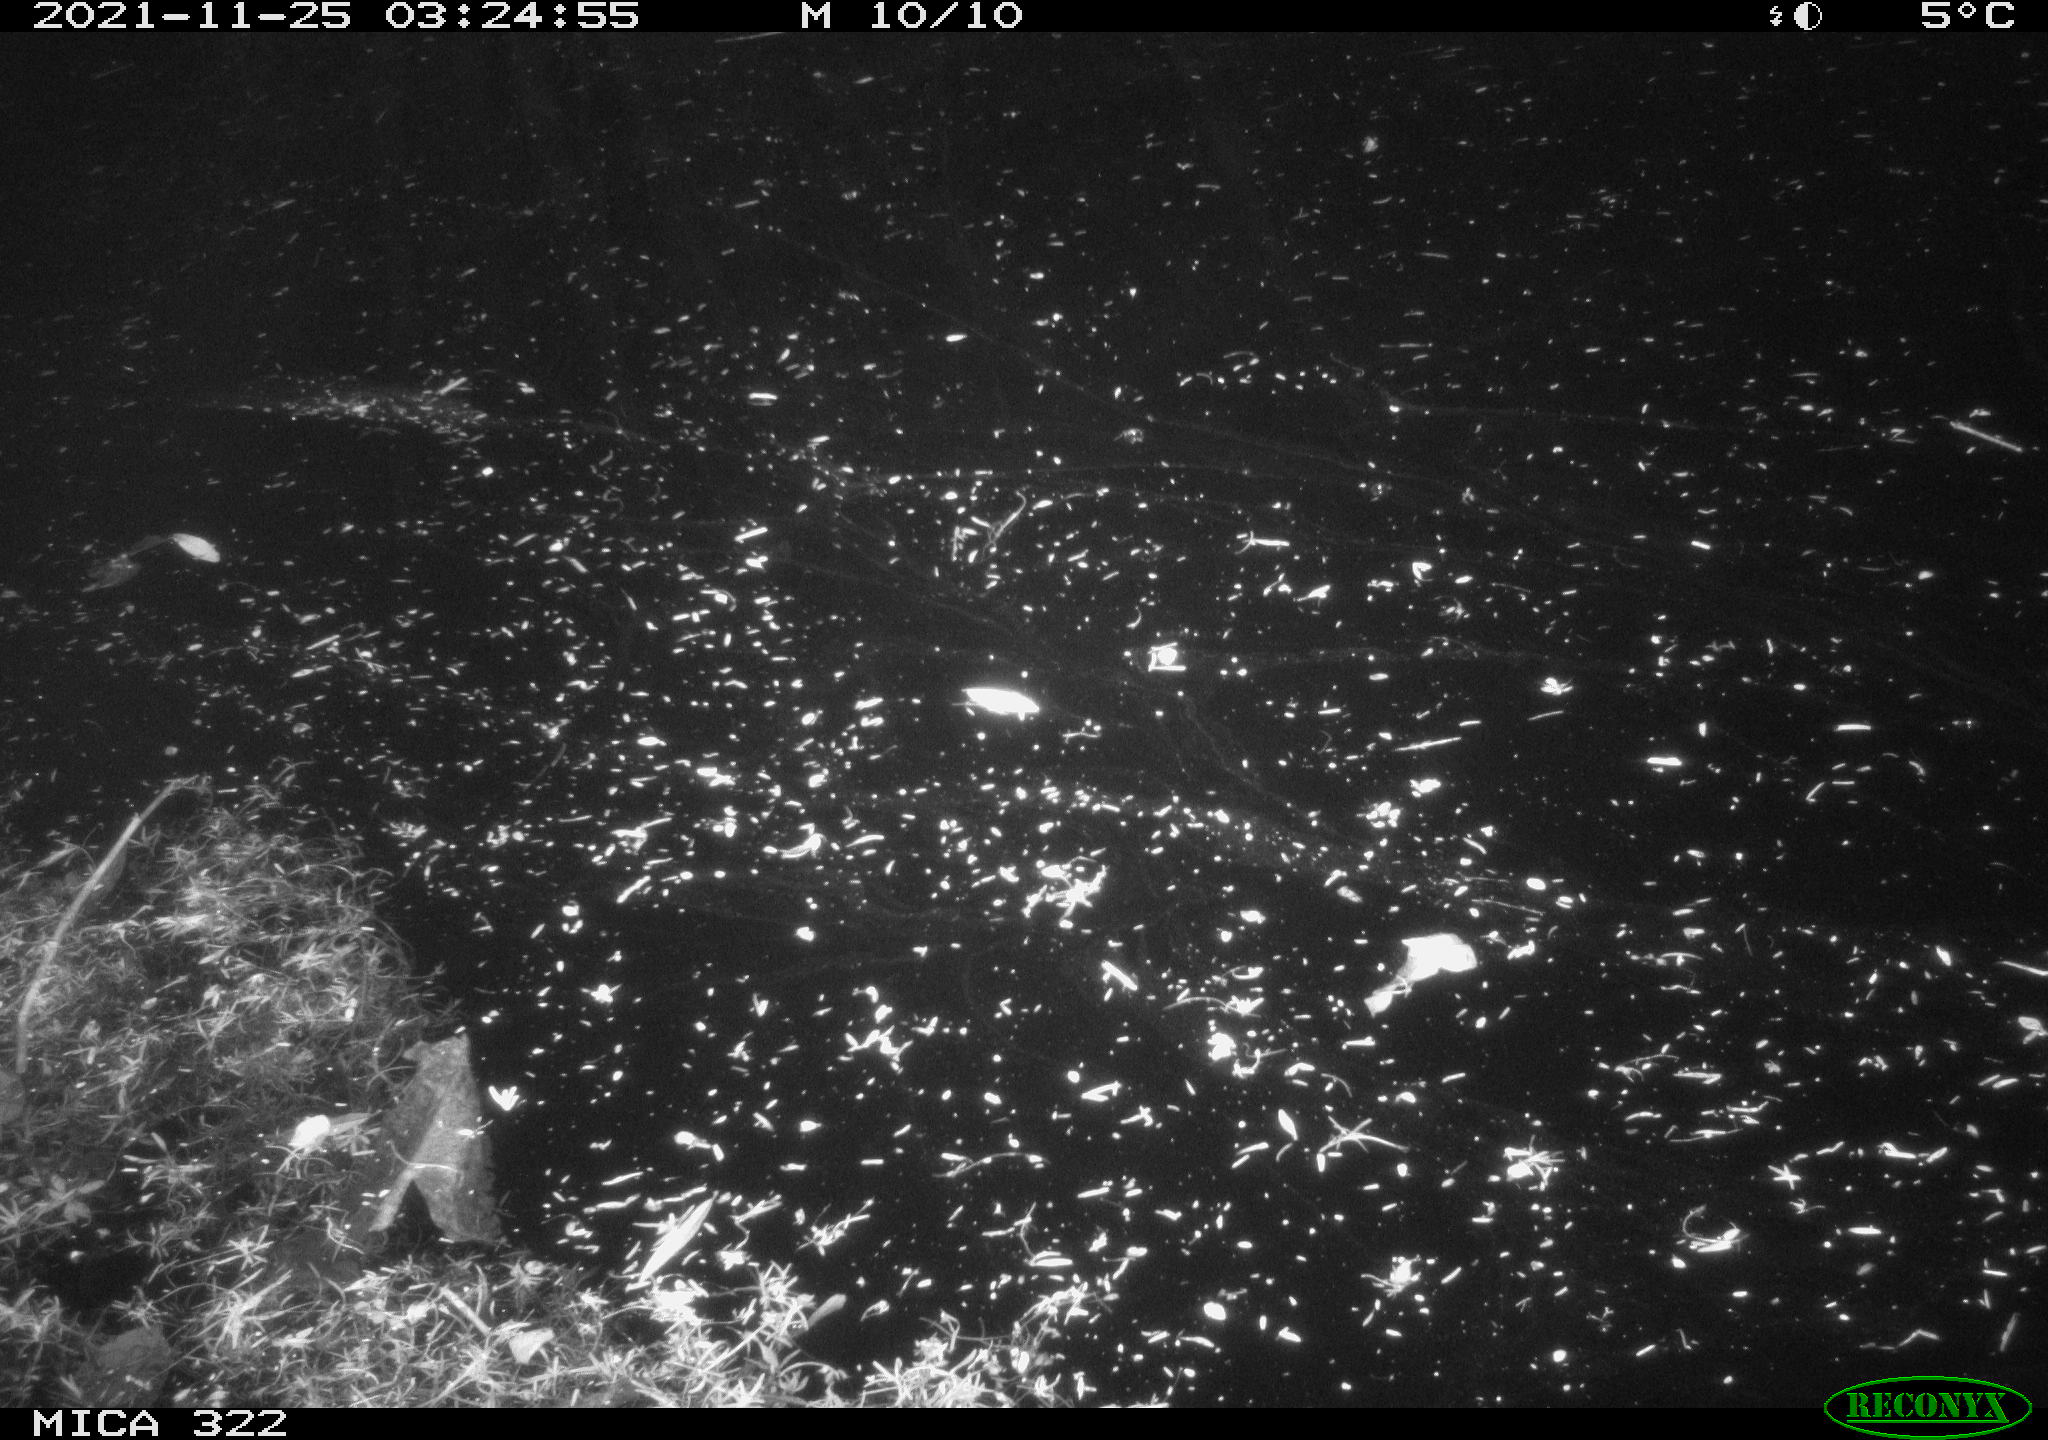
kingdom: Animalia
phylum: Chordata
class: Mammalia
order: Rodentia
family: Muridae
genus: Rattus
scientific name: Rattus norvegicus
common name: Brown rat
